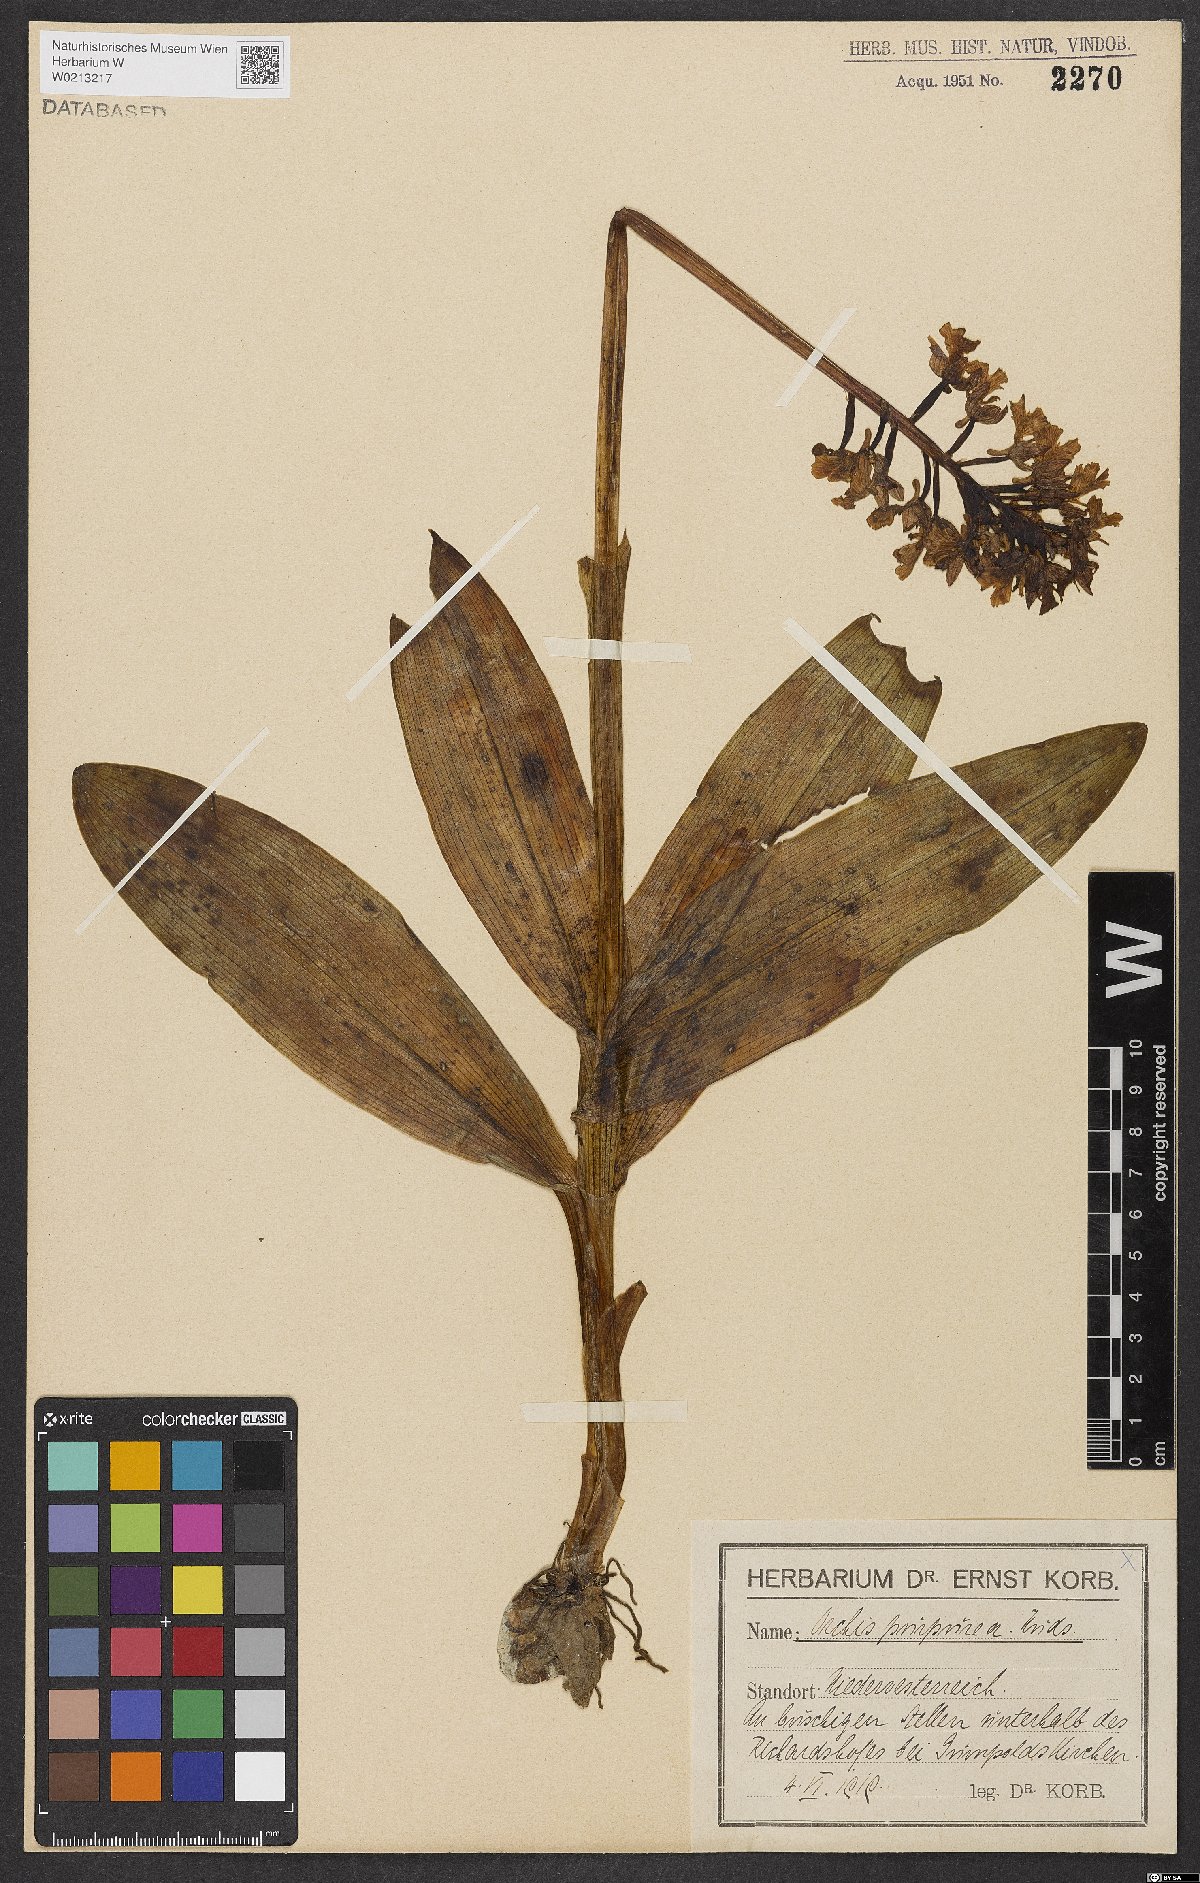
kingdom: Plantae
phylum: Tracheophyta
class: Liliopsida
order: Asparagales
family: Orchidaceae
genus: Orchis
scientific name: Orchis purpurea
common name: Lady orchid
